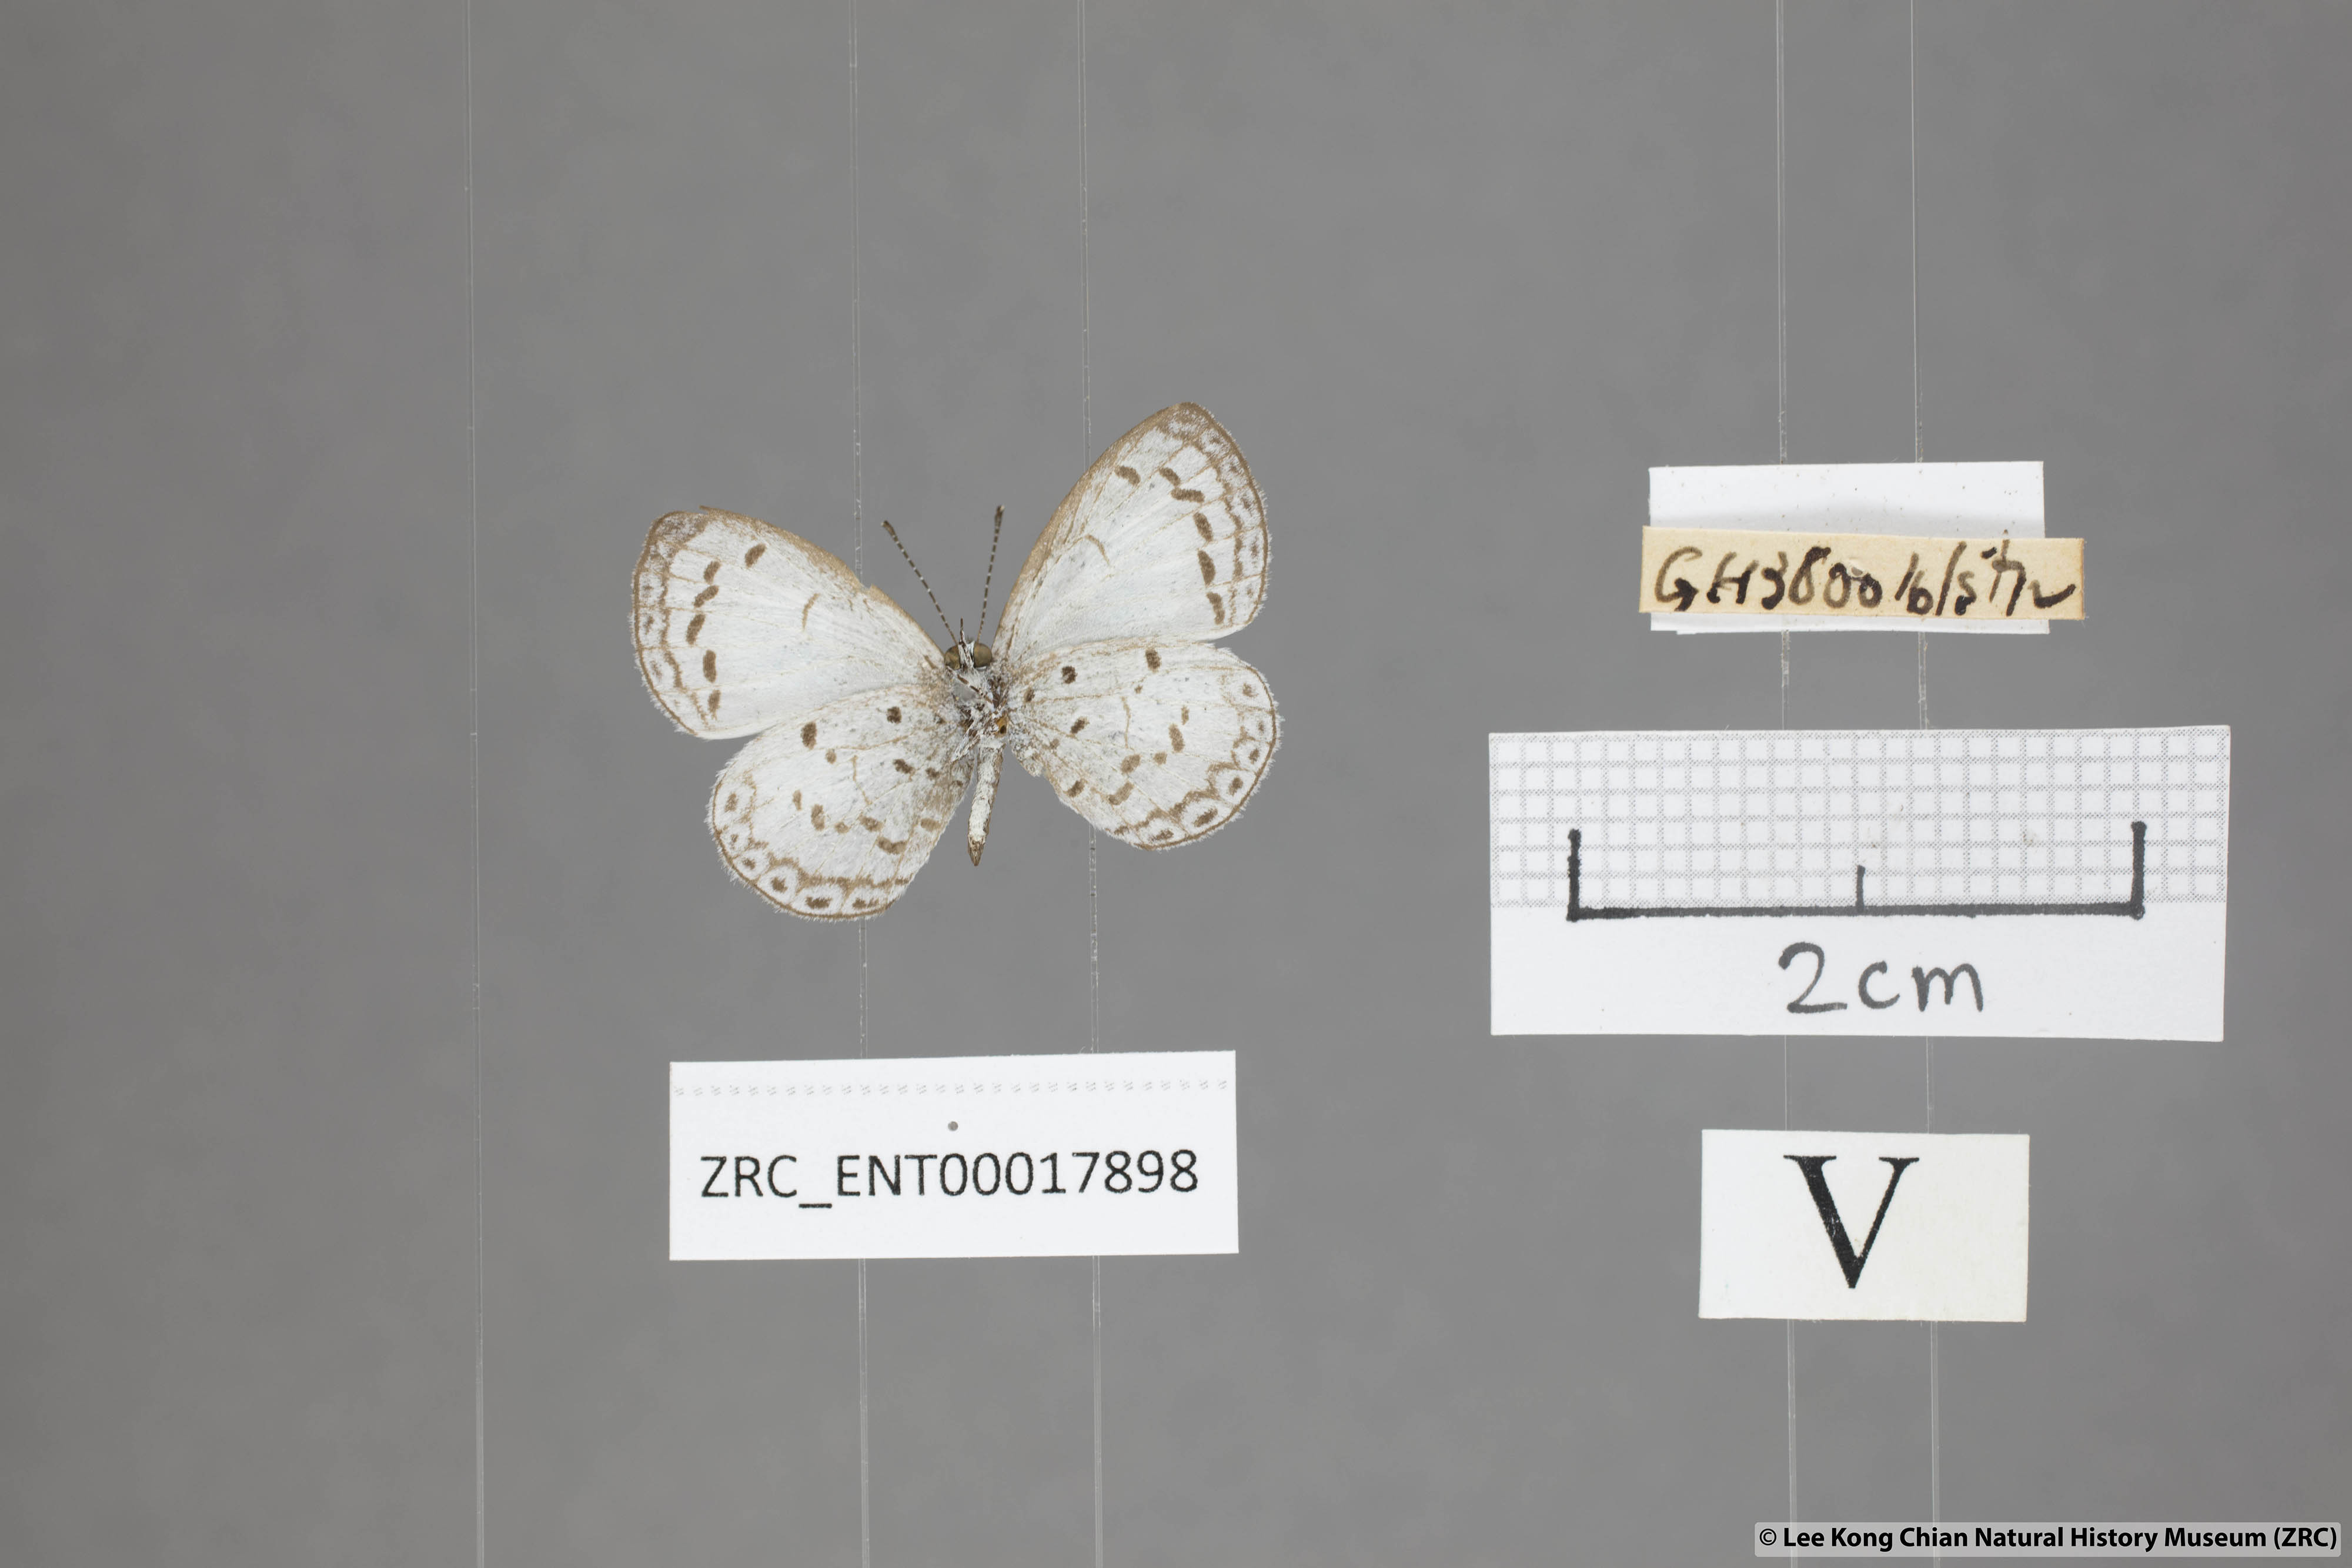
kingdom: Animalia
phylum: Arthropoda
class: Insecta
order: Lepidoptera
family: Lycaenidae
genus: Oreolyce
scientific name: Oreolyce
